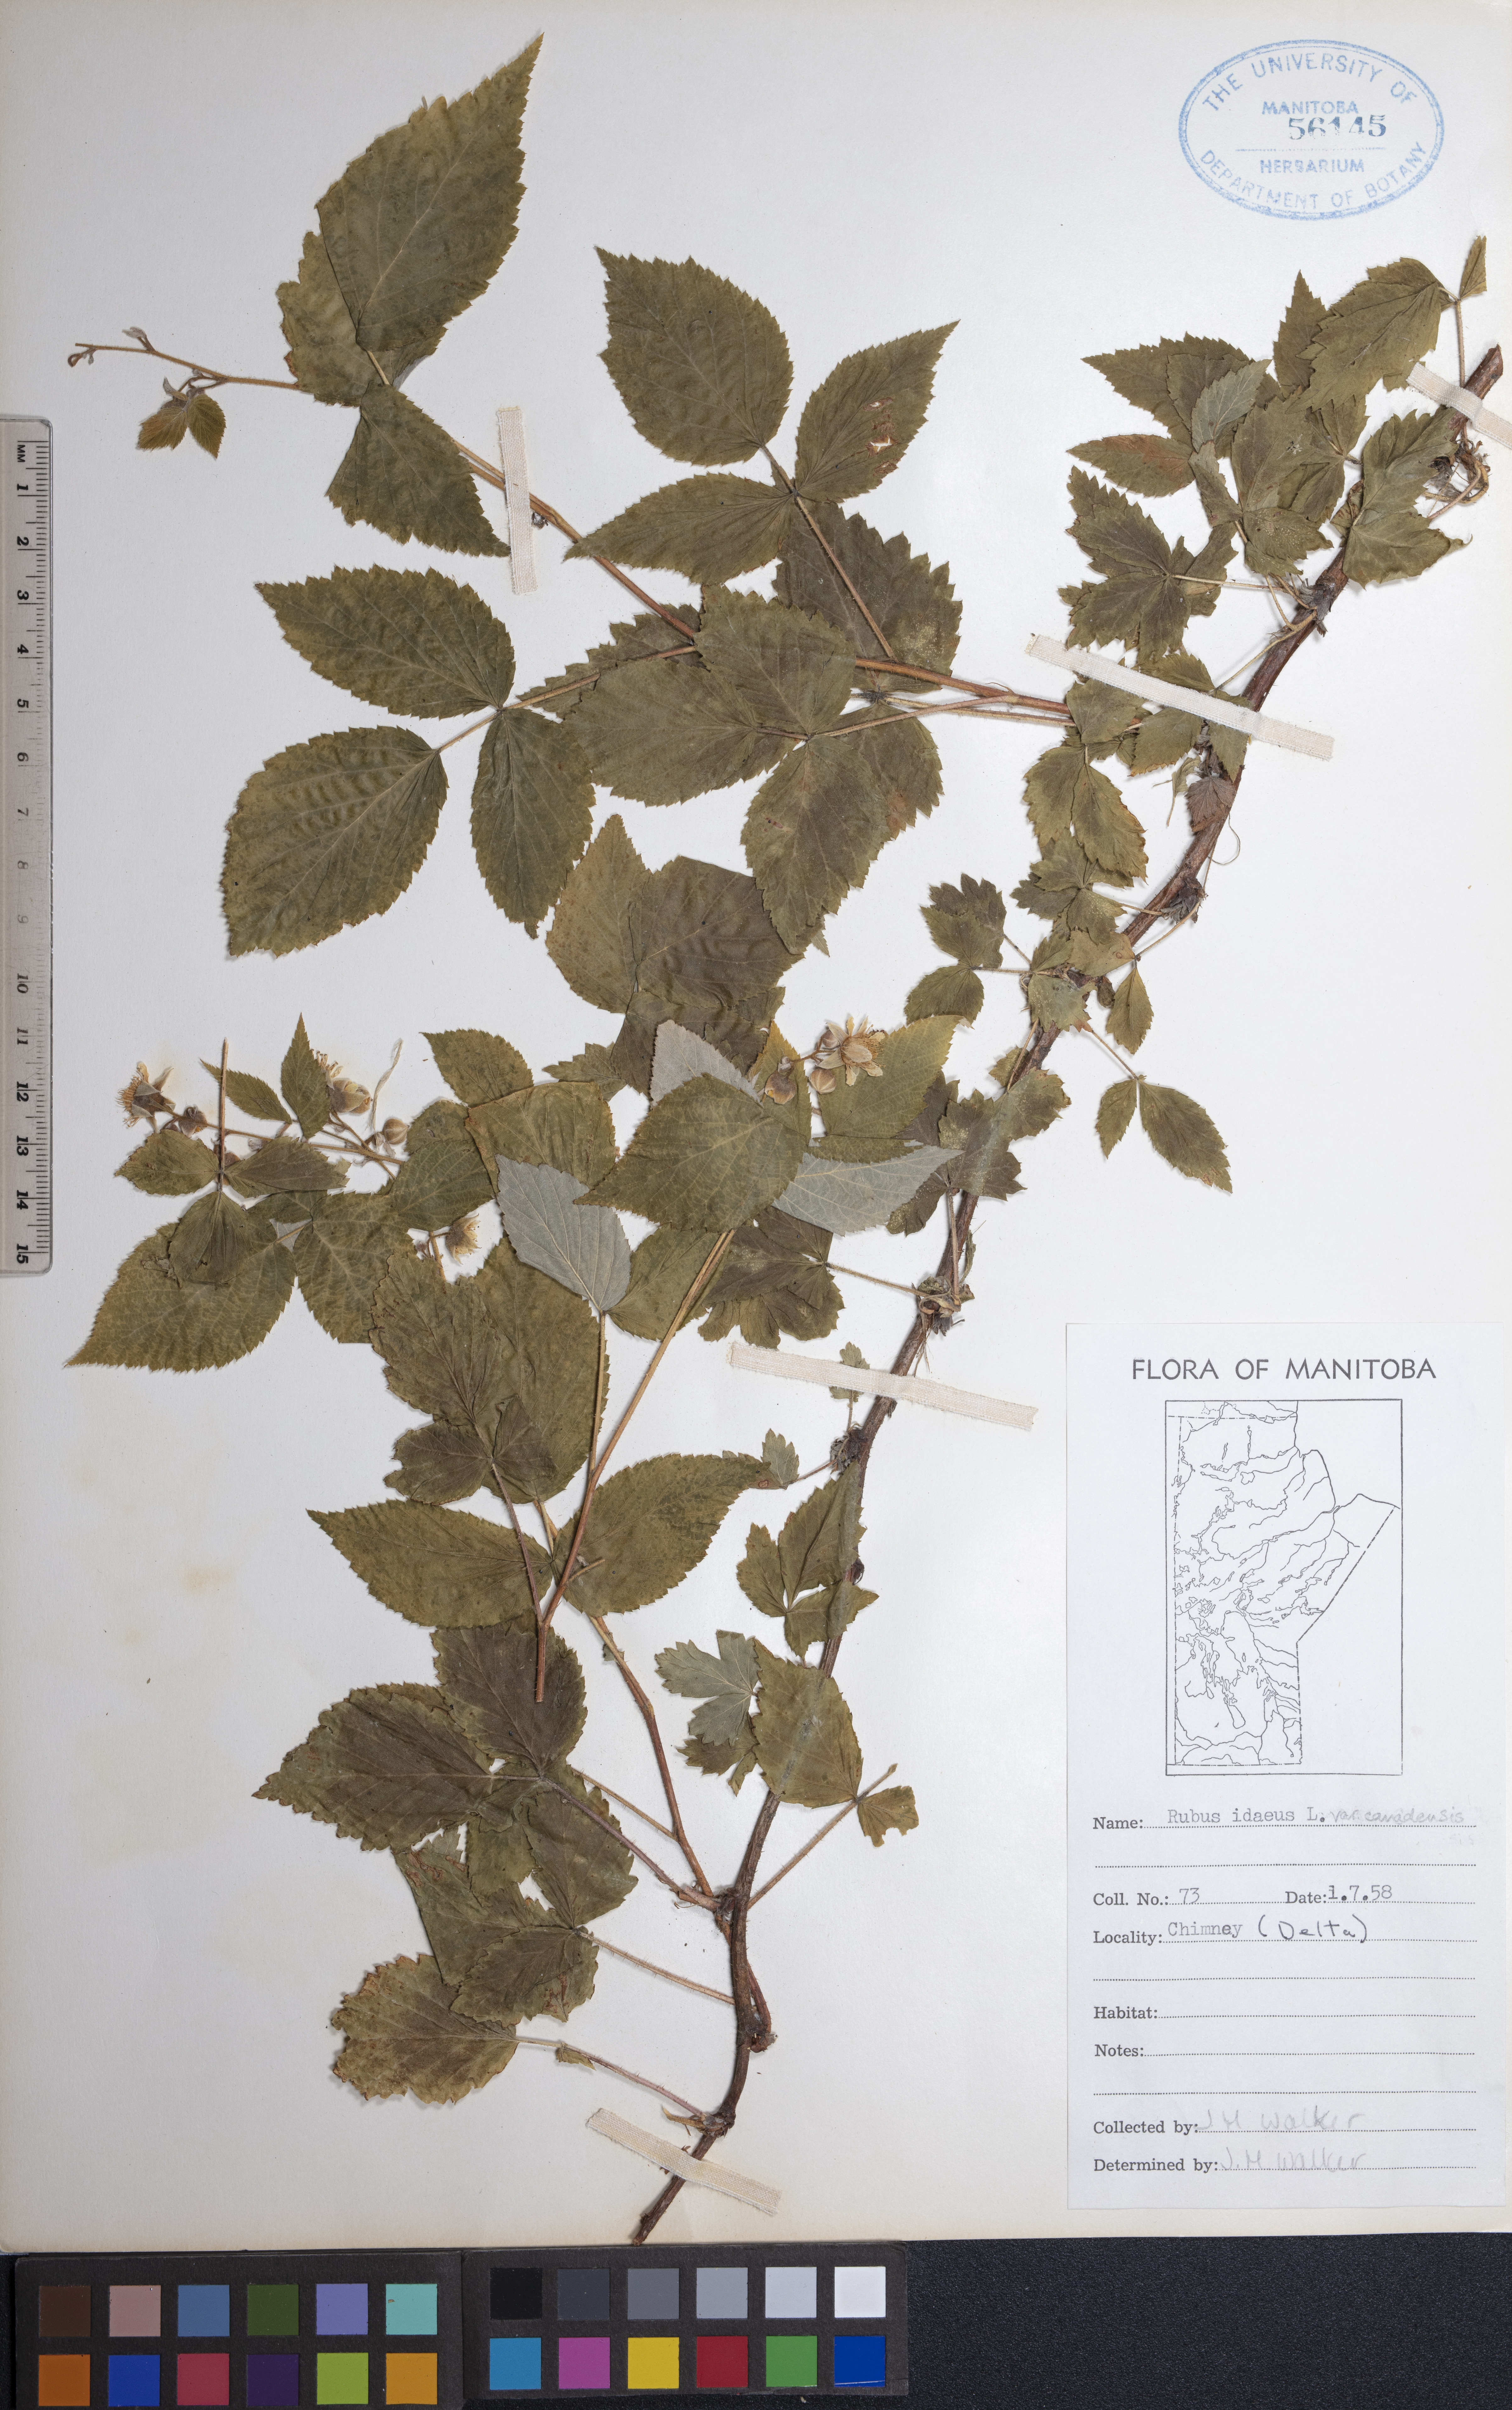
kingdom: Plantae
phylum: Tracheophyta
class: Magnoliopsida
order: Rosales
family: Rosaceae
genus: Rubus
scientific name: Rubus idaeus
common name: Raspberry
